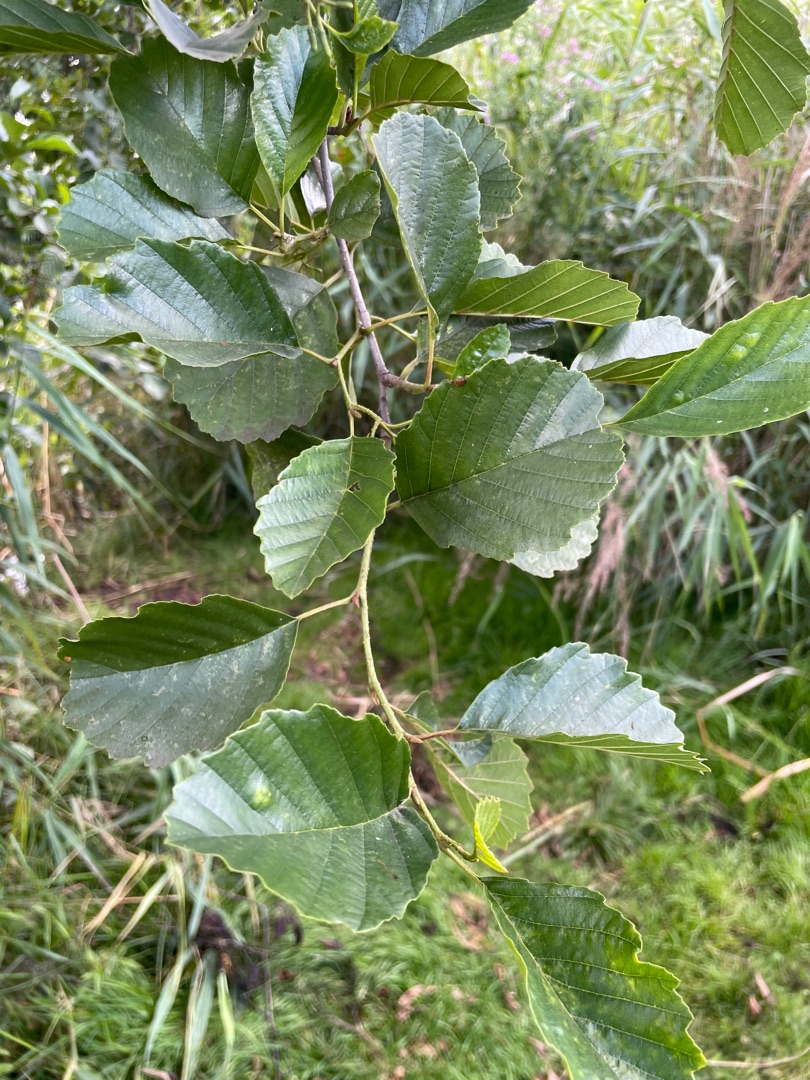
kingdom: Plantae
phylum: Tracheophyta
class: Magnoliopsida
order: Fagales
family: Betulaceae
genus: Alnus
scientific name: Alnus glutinosa
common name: Rød-el
